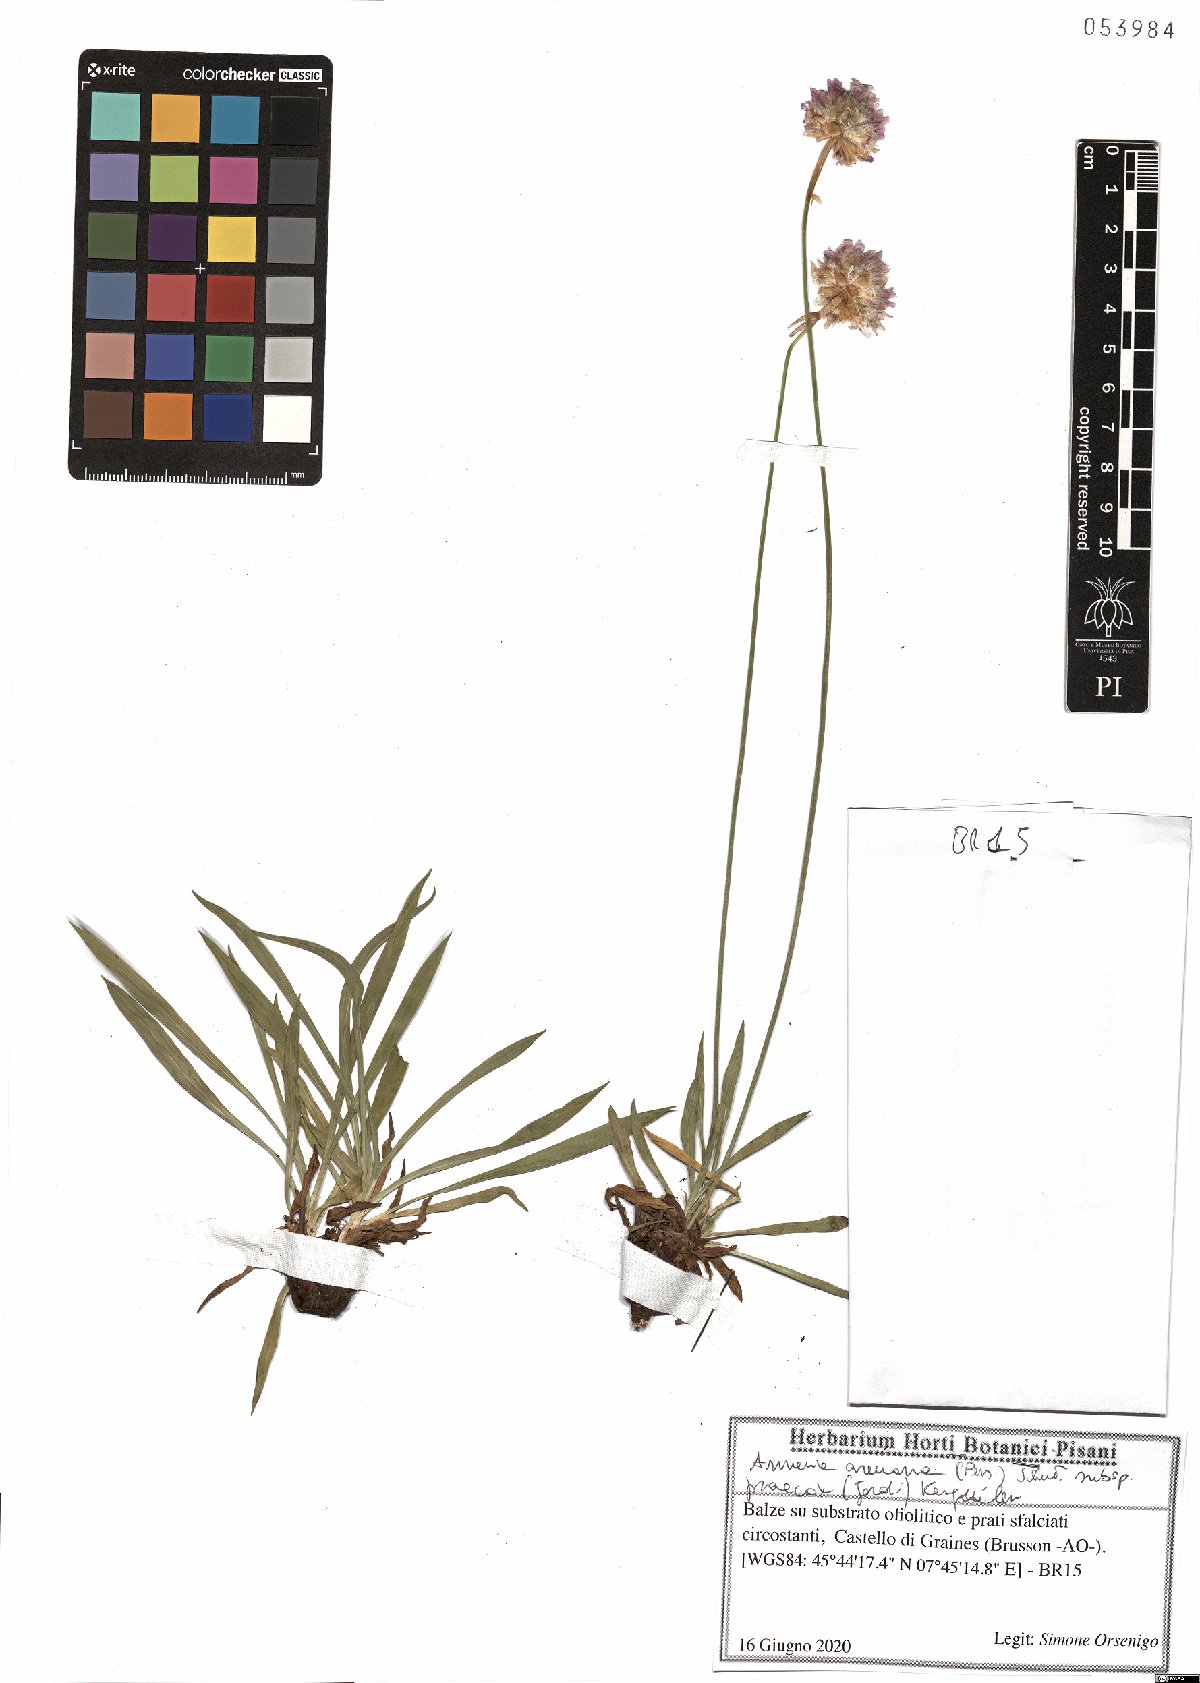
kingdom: Plantae
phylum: Tracheophyta
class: Magnoliopsida
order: Caryophyllales
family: Plumbaginaceae
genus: Armeria
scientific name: Armeria arenaria
